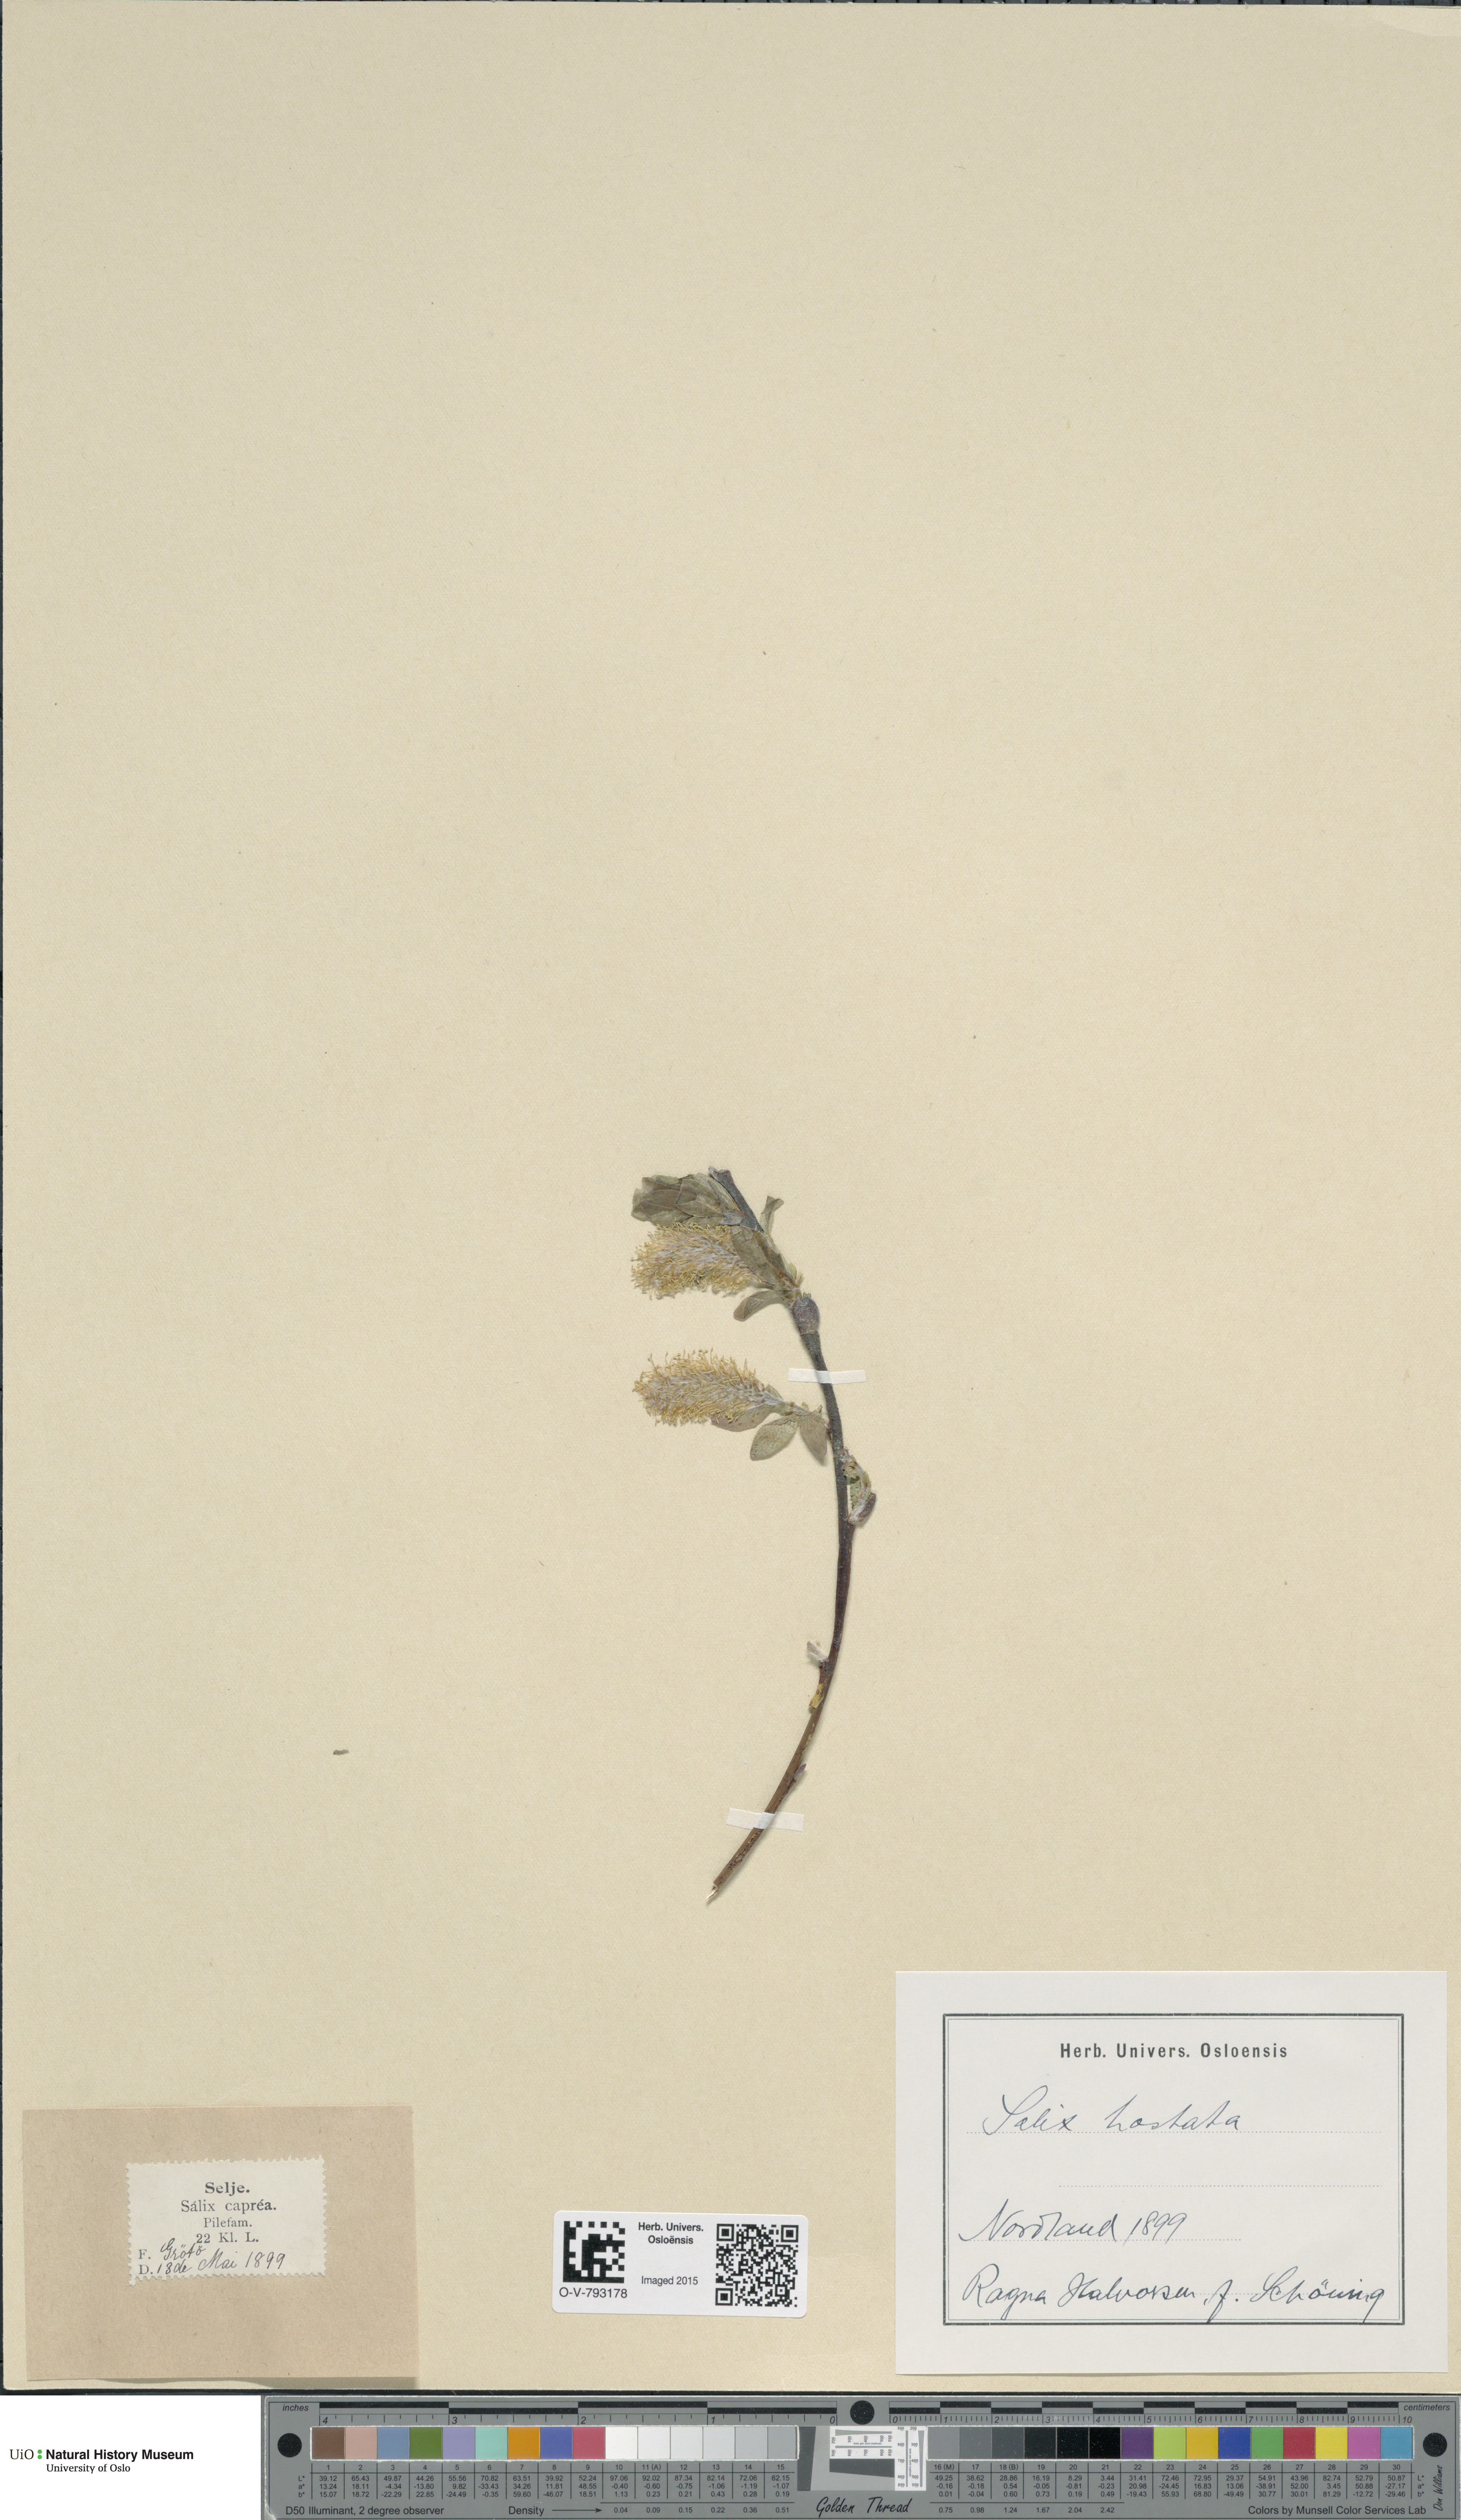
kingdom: Plantae
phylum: Tracheophyta
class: Magnoliopsida
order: Malpighiales
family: Salicaceae
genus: Salix
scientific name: Salix hastata
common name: Halberd willow
